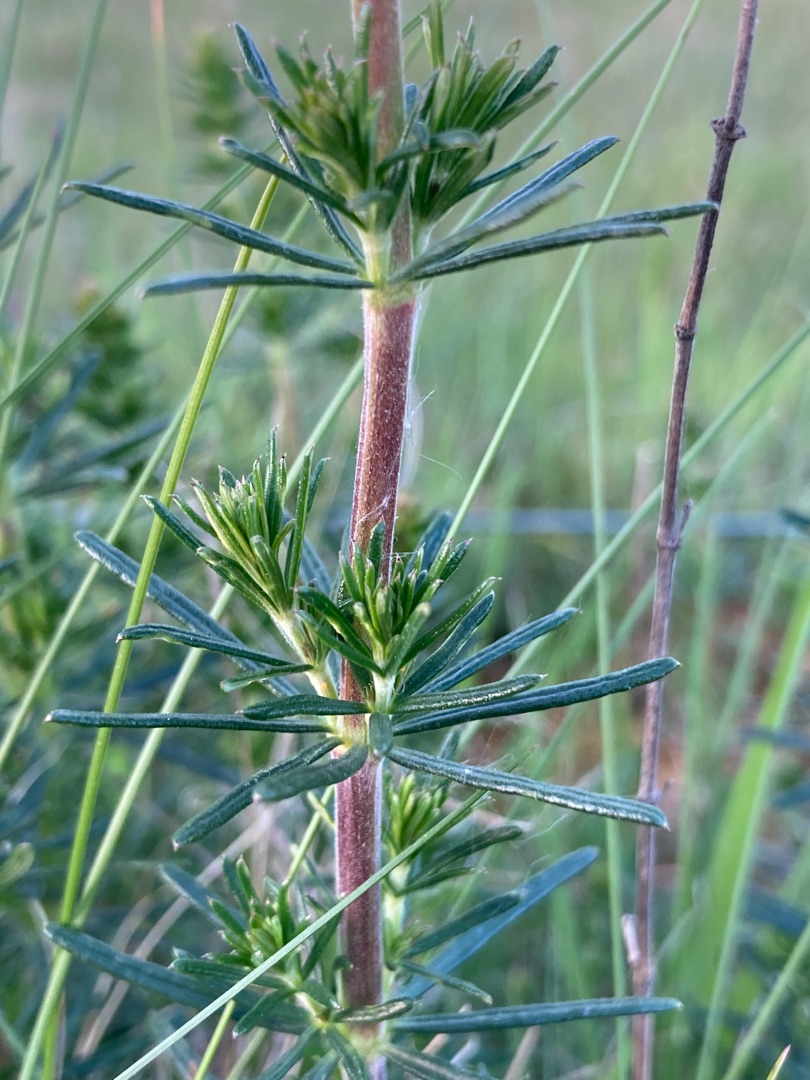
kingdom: Plantae
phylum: Tracheophyta
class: Magnoliopsida
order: Gentianales
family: Rubiaceae
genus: Galium
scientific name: Galium verum
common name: Gul snerre
